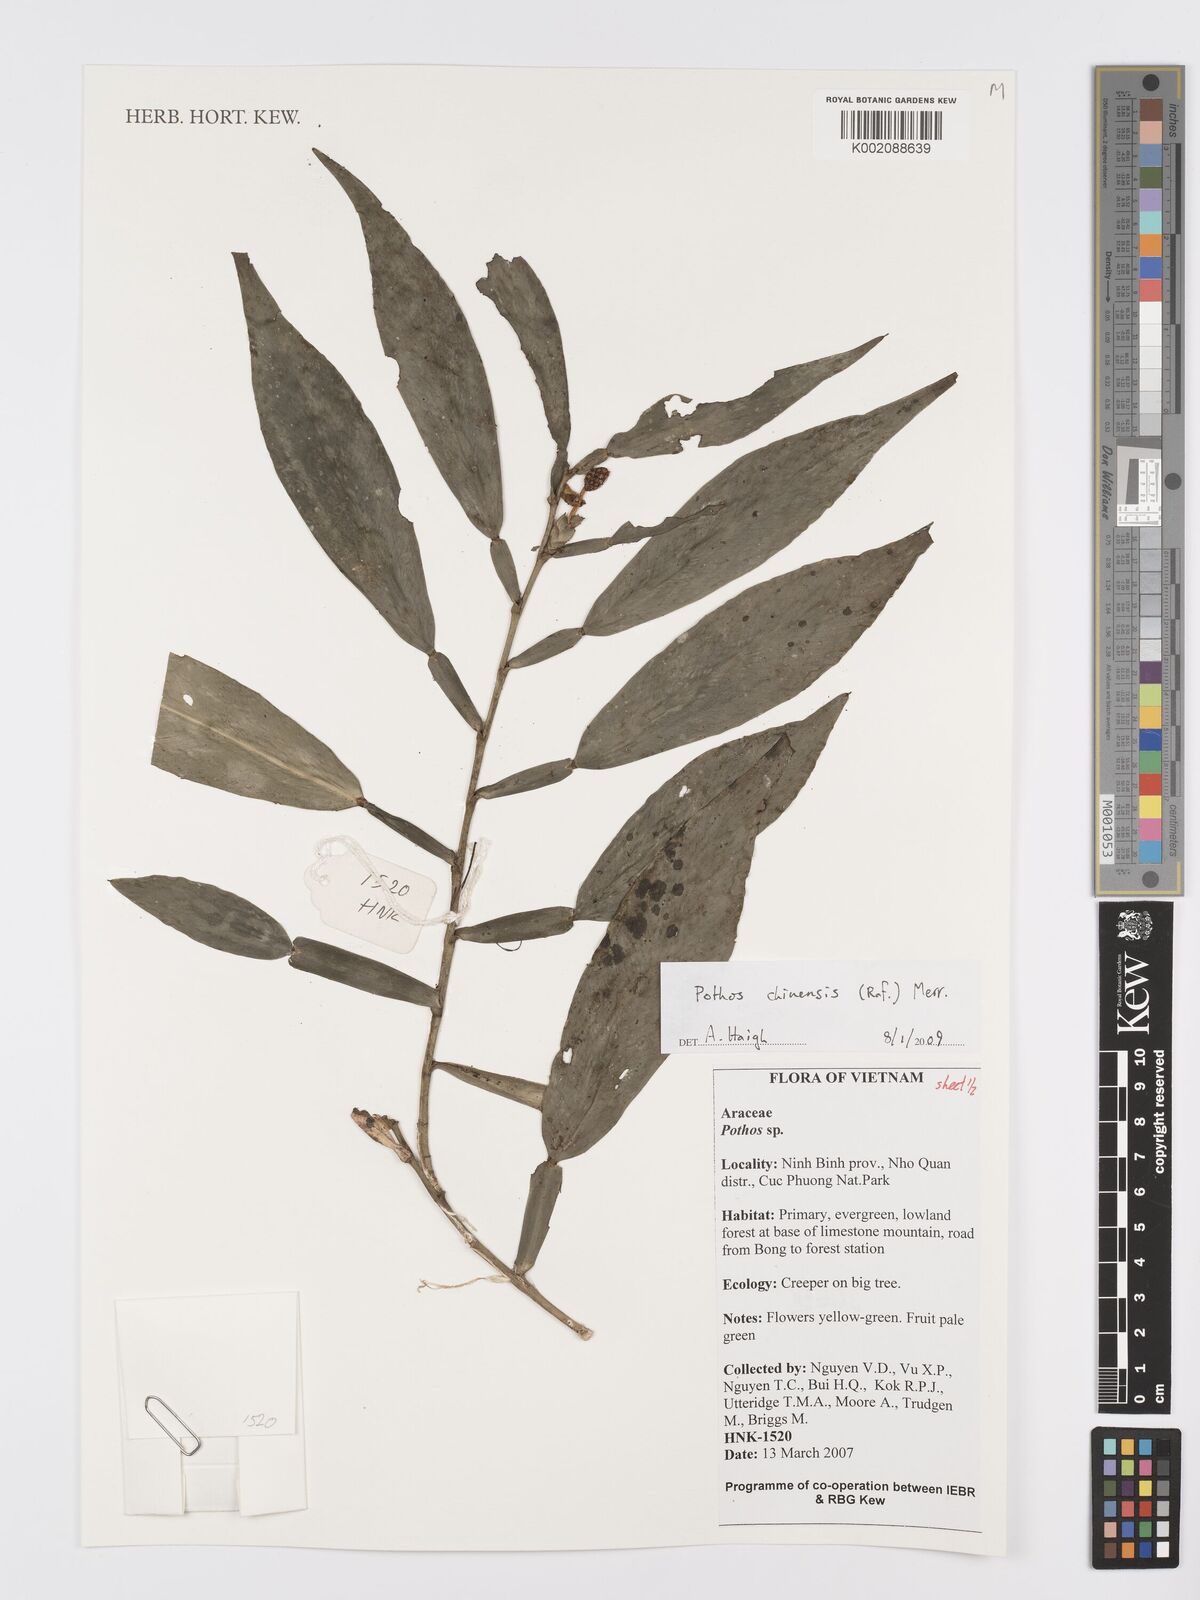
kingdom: Plantae
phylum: Tracheophyta
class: Liliopsida
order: Alismatales
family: Araceae
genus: Pothos
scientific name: Pothos chinensis
